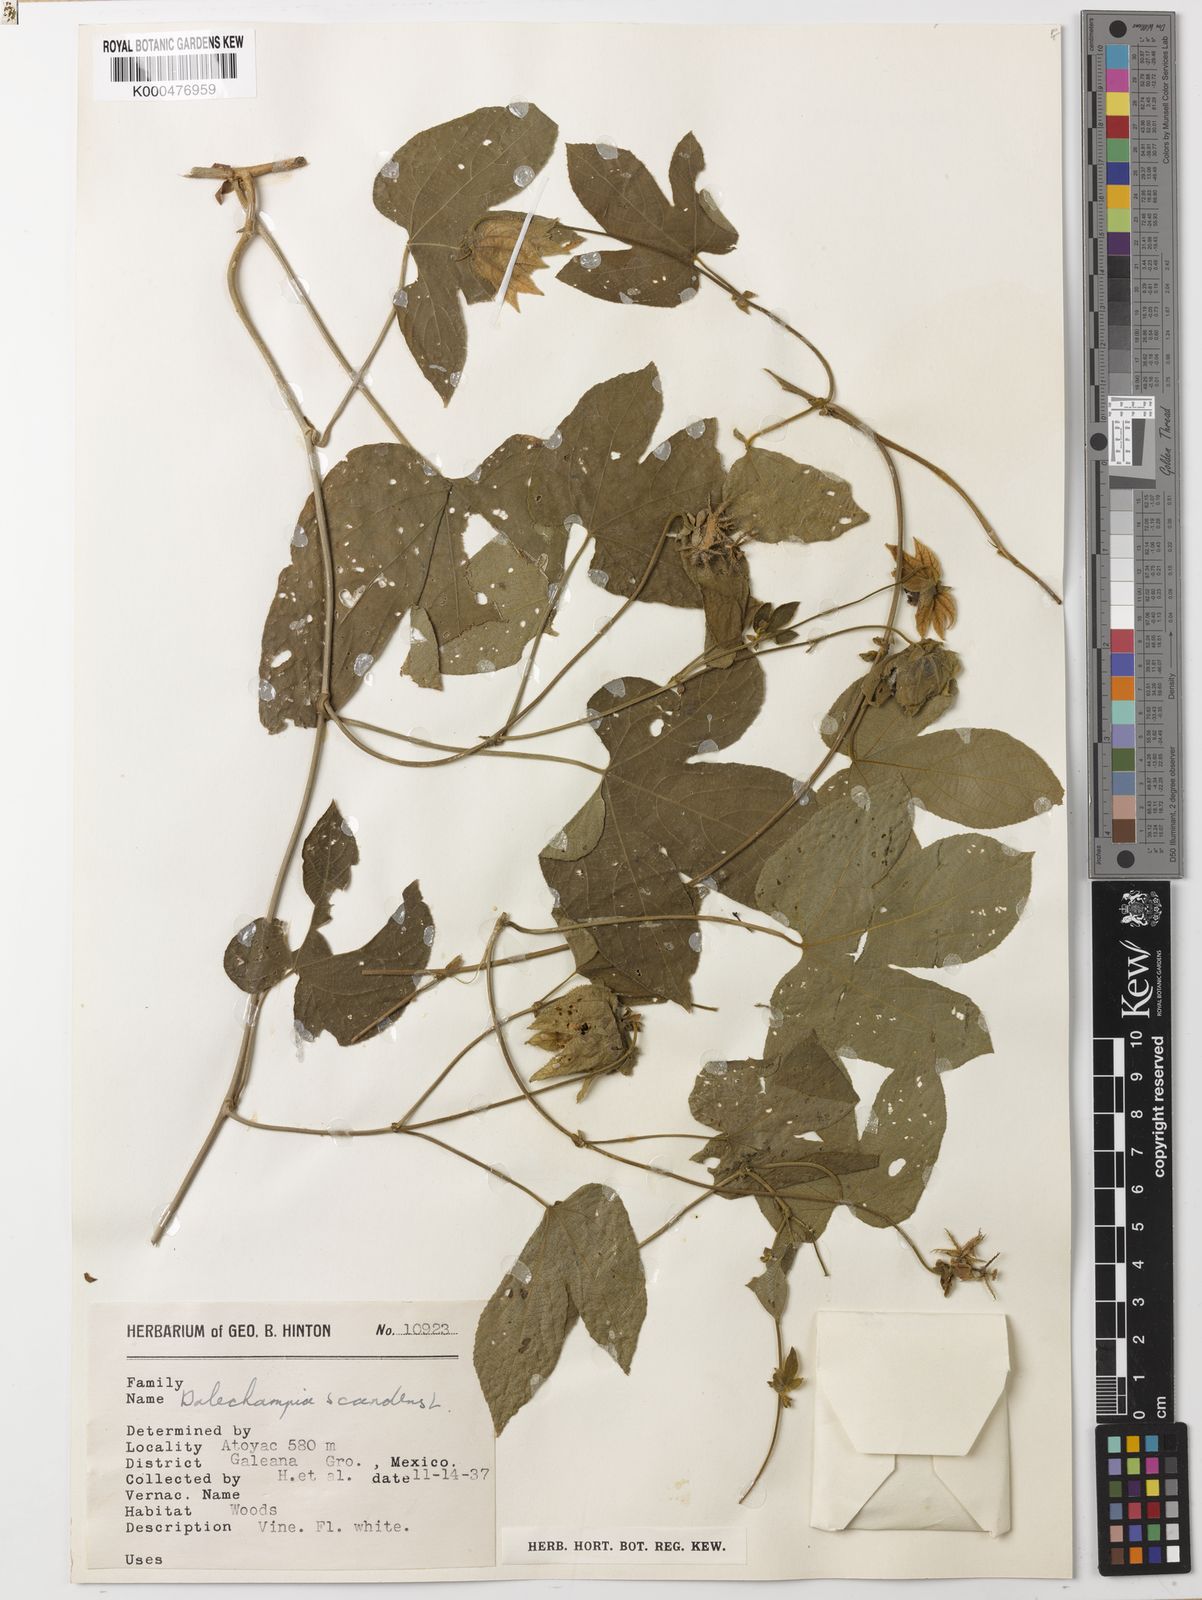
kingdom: Plantae
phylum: Tracheophyta
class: Magnoliopsida
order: Malpighiales
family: Euphorbiaceae
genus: Dalechampia
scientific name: Dalechampia scandens
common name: Spurgecreeper
